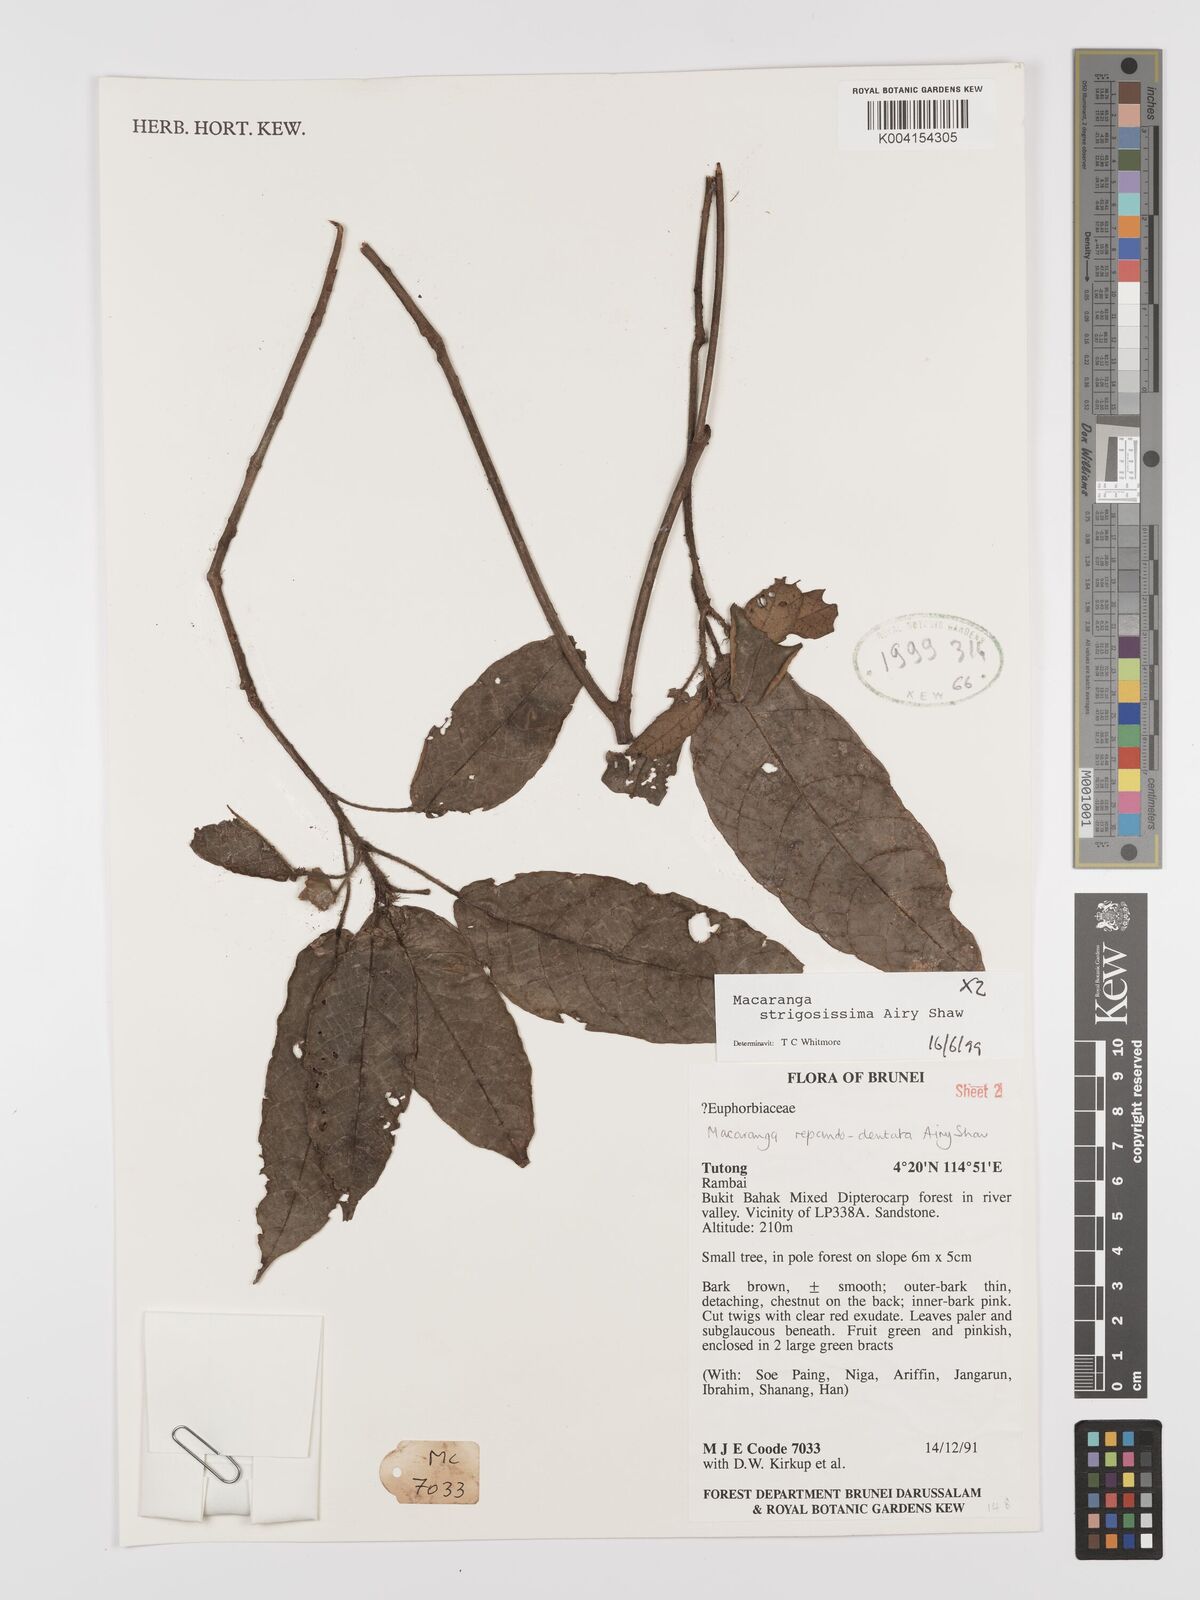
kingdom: Plantae
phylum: Tracheophyta
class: Magnoliopsida
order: Malpighiales
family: Euphorbiaceae
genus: Macaranga
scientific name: Macaranga strigosissima
